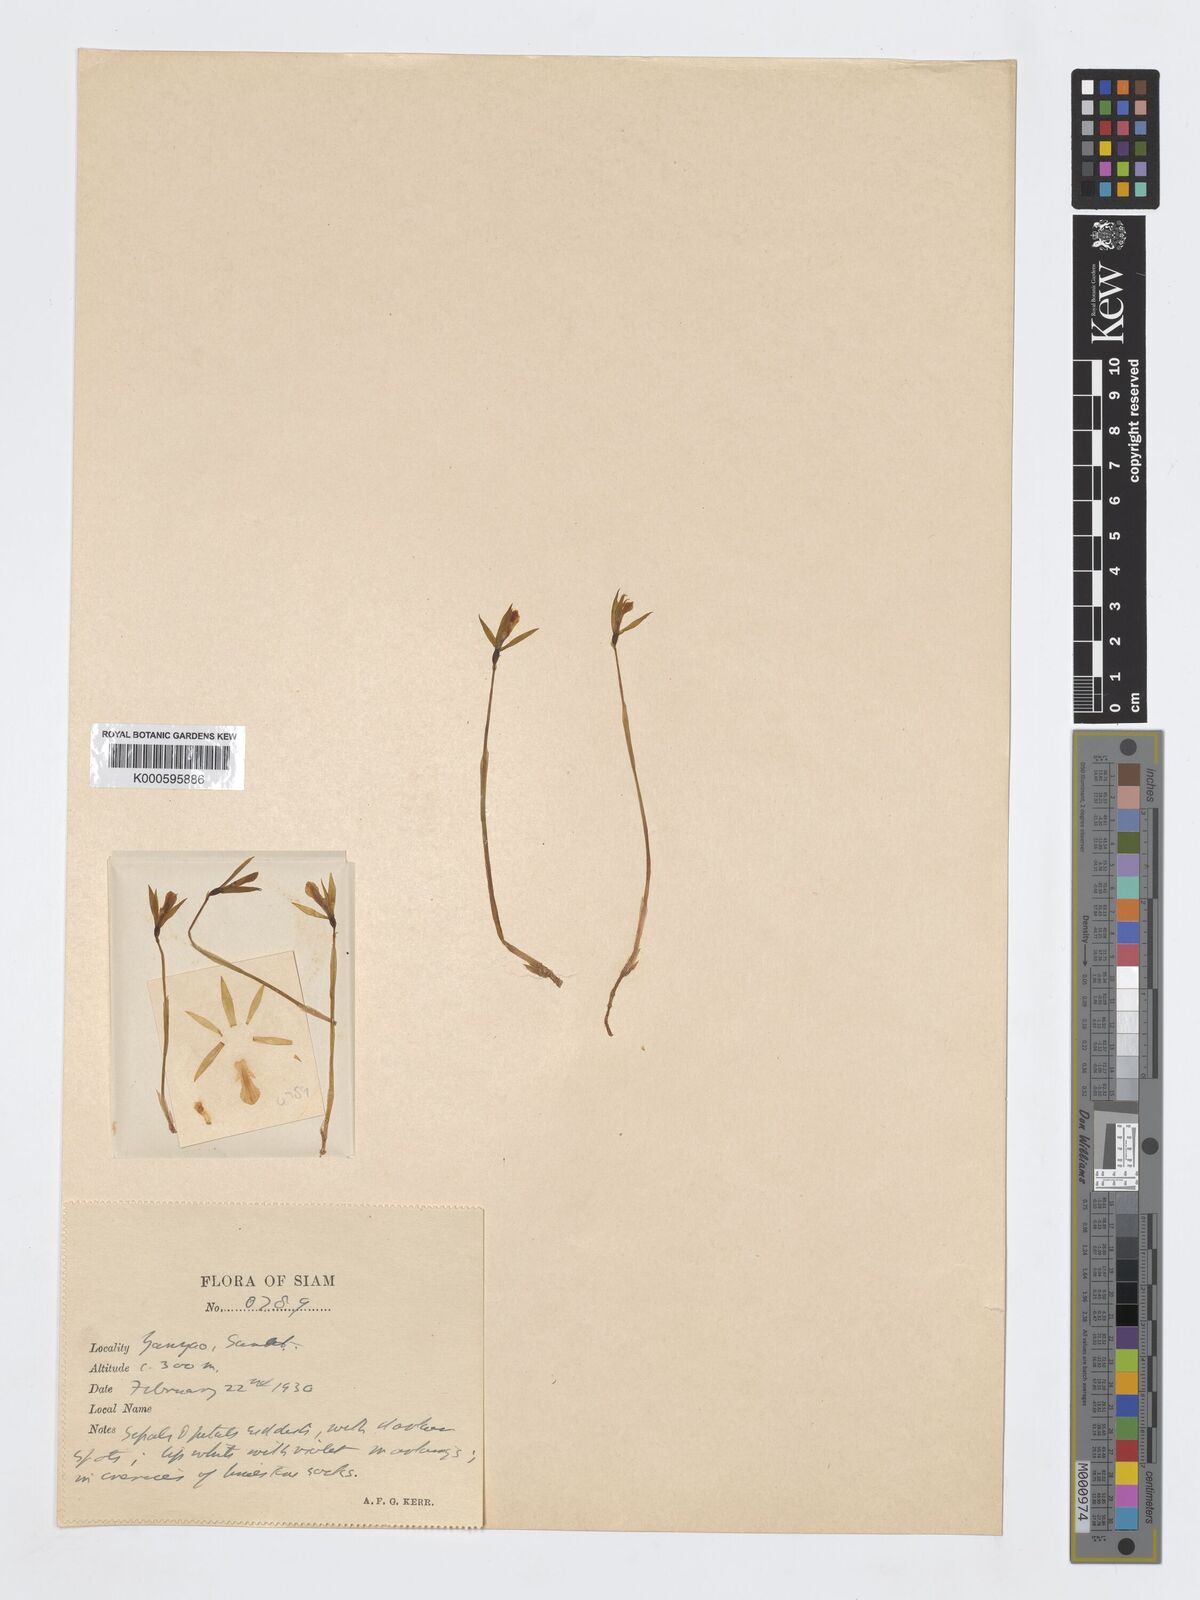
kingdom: Plantae
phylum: Tracheophyta
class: Liliopsida
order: Asparagales
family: Orchidaceae
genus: Nervilia
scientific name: Nervilia
